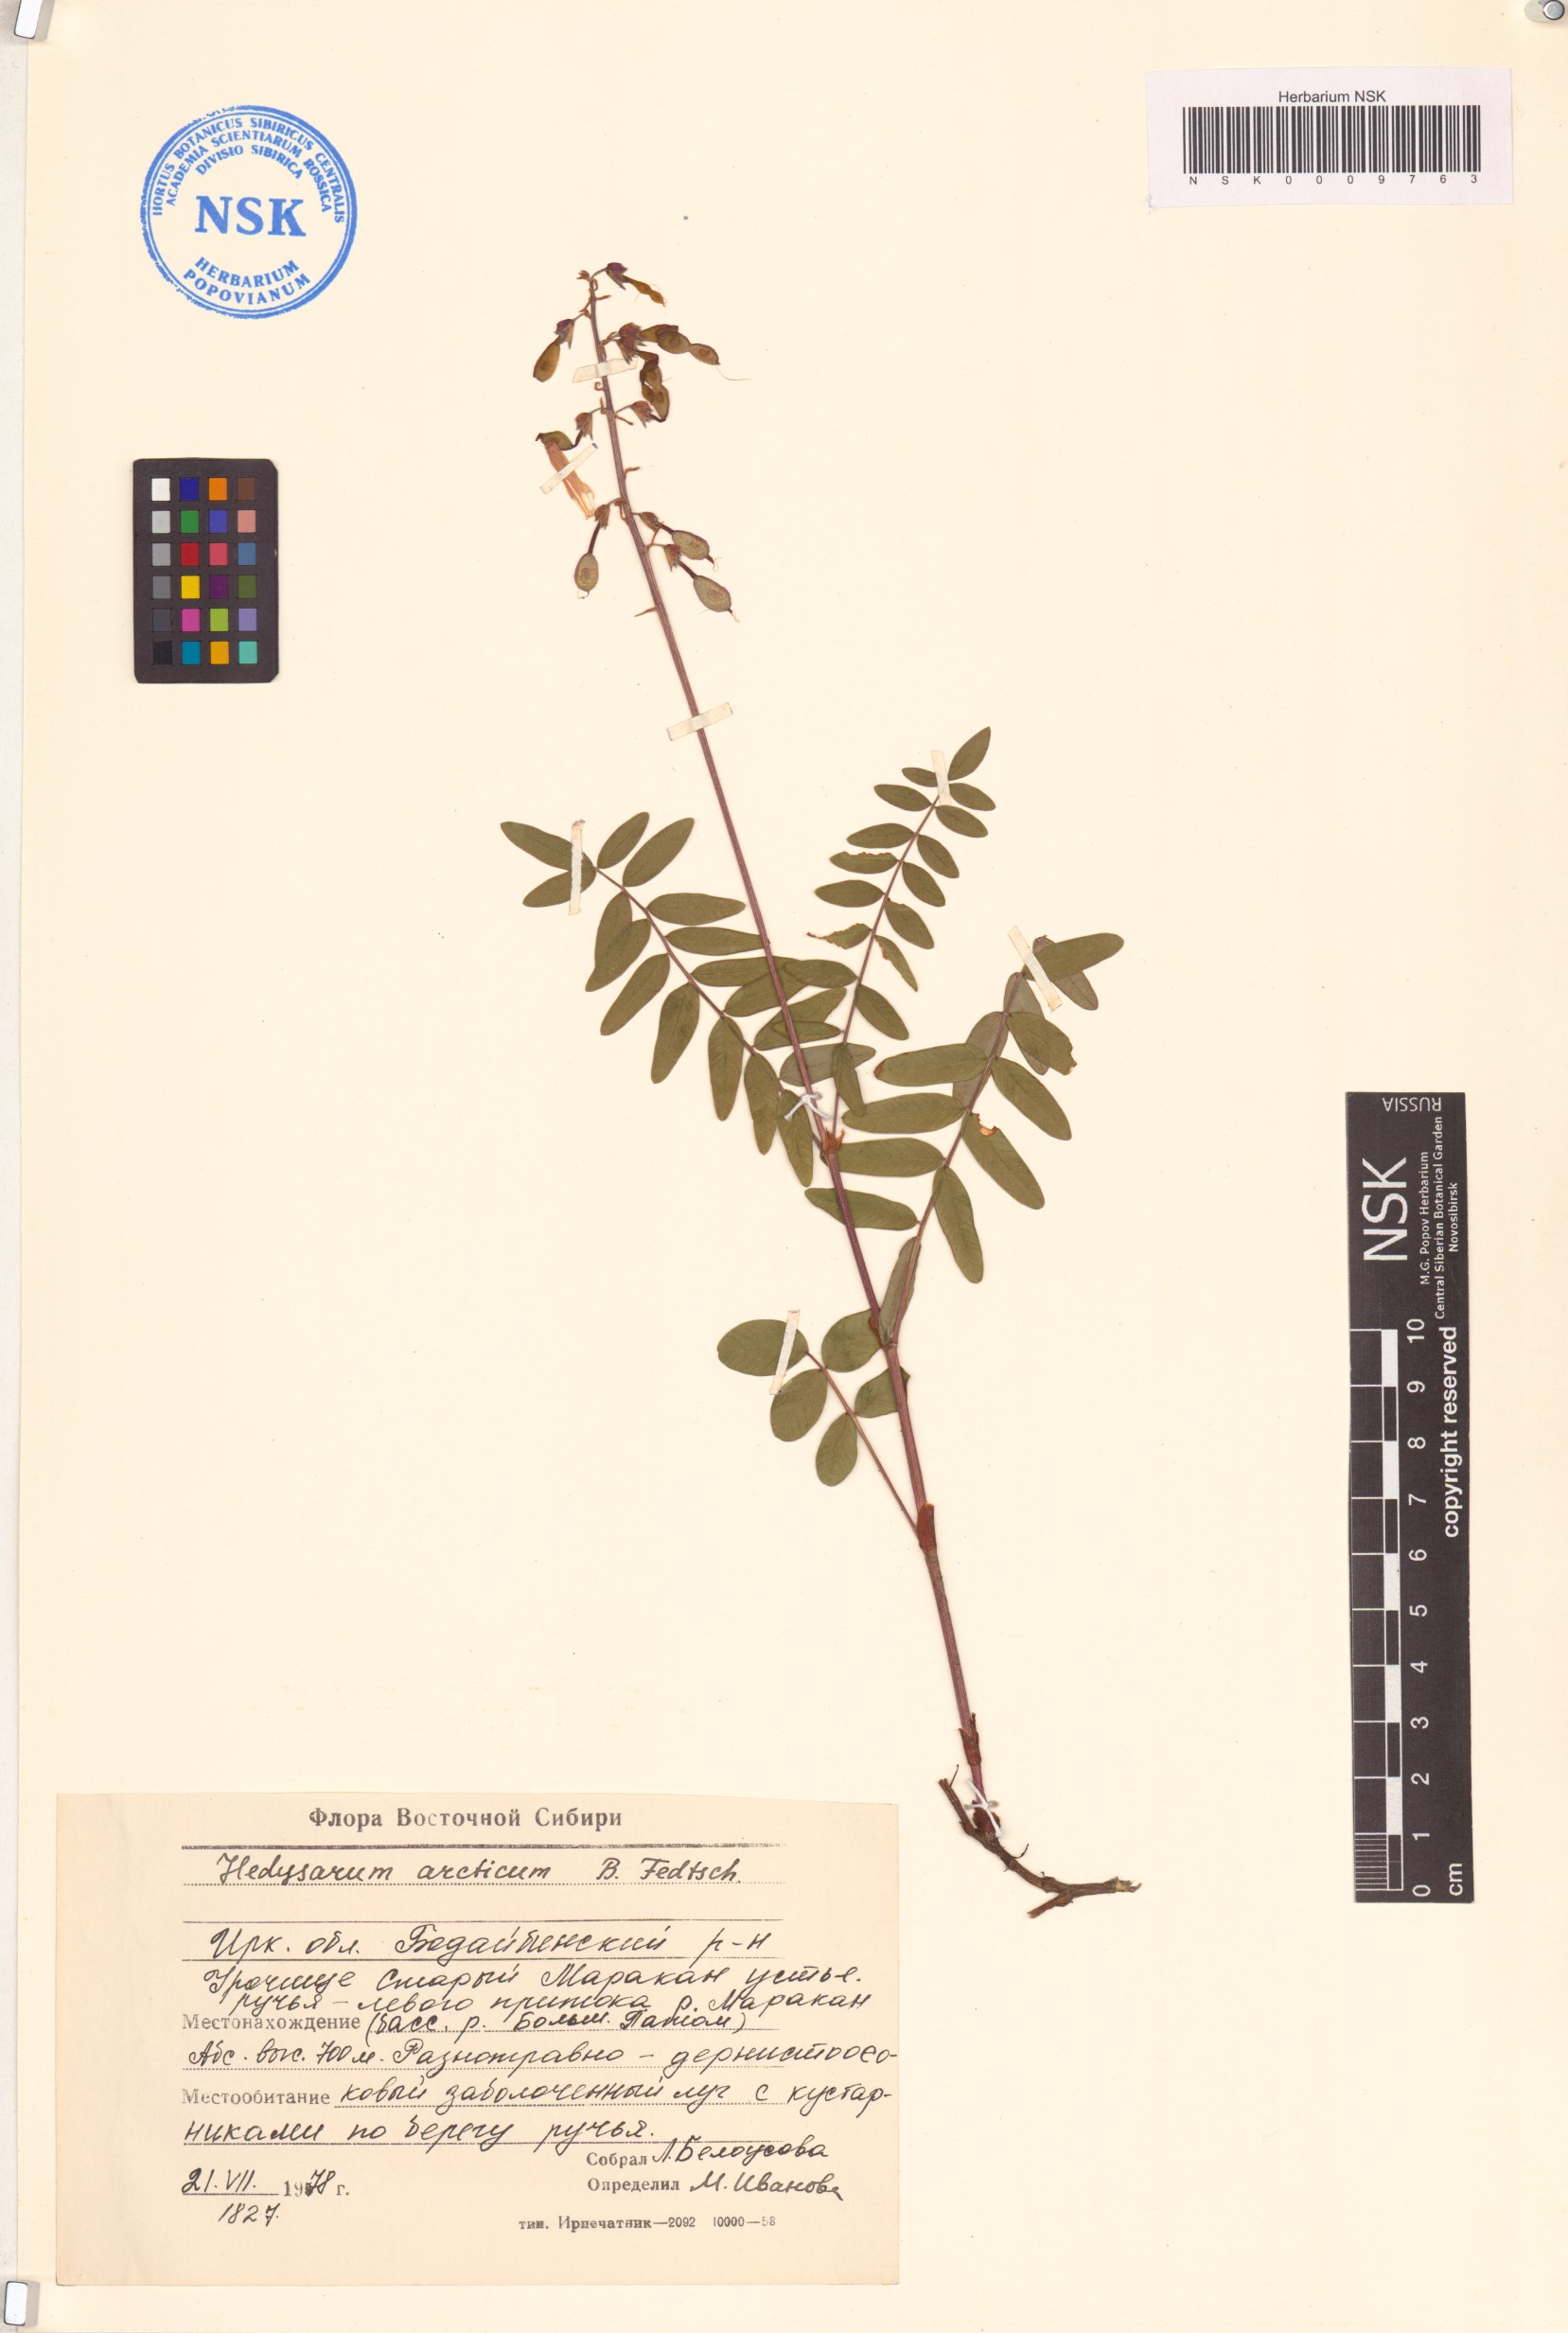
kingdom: Plantae
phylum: Tracheophyta
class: Magnoliopsida
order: Fabales
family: Fabaceae
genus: Hedysarum
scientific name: Hedysarum hedysaroides
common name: Alpine french-honeysuckle
